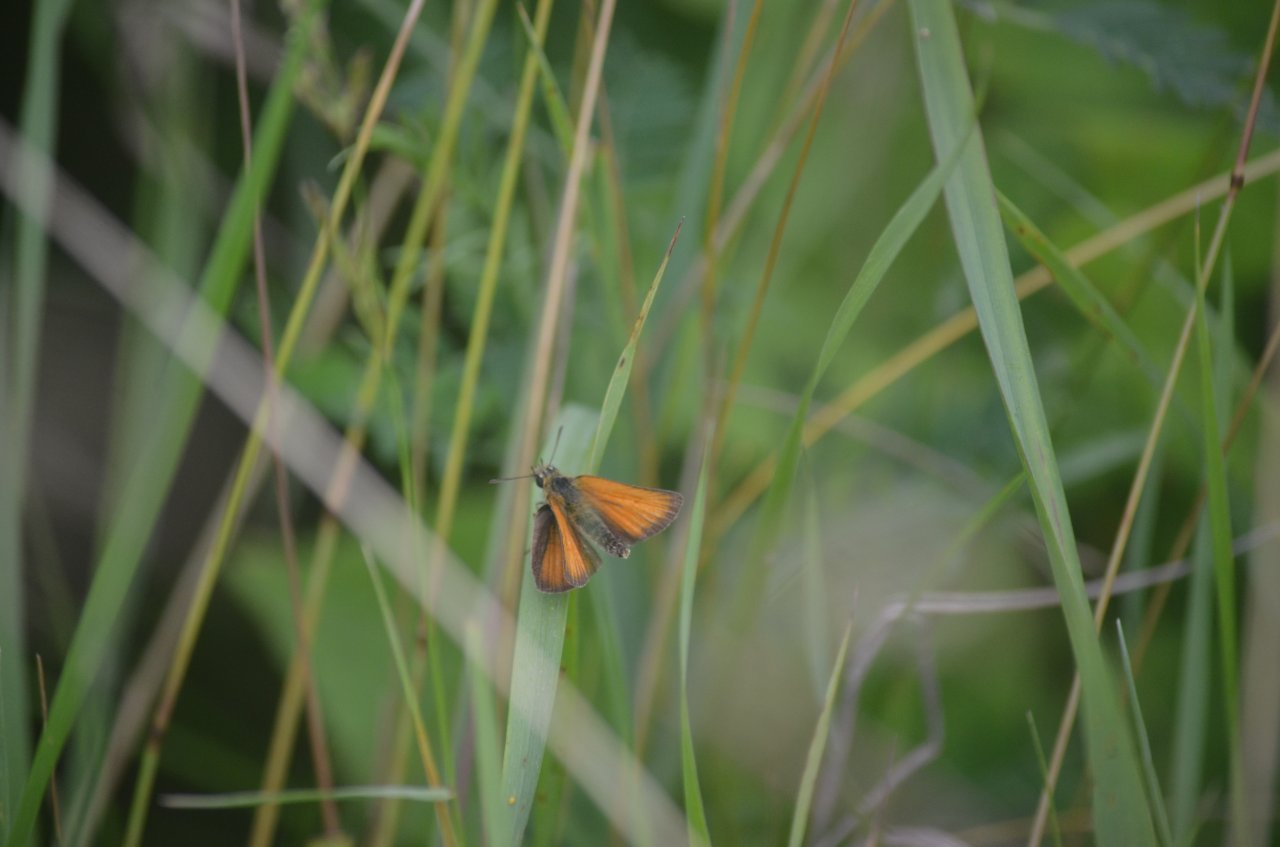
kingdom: Animalia
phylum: Arthropoda
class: Insecta
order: Lepidoptera
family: Hesperiidae
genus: Thymelicus
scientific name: Thymelicus lineola
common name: European Skipper
